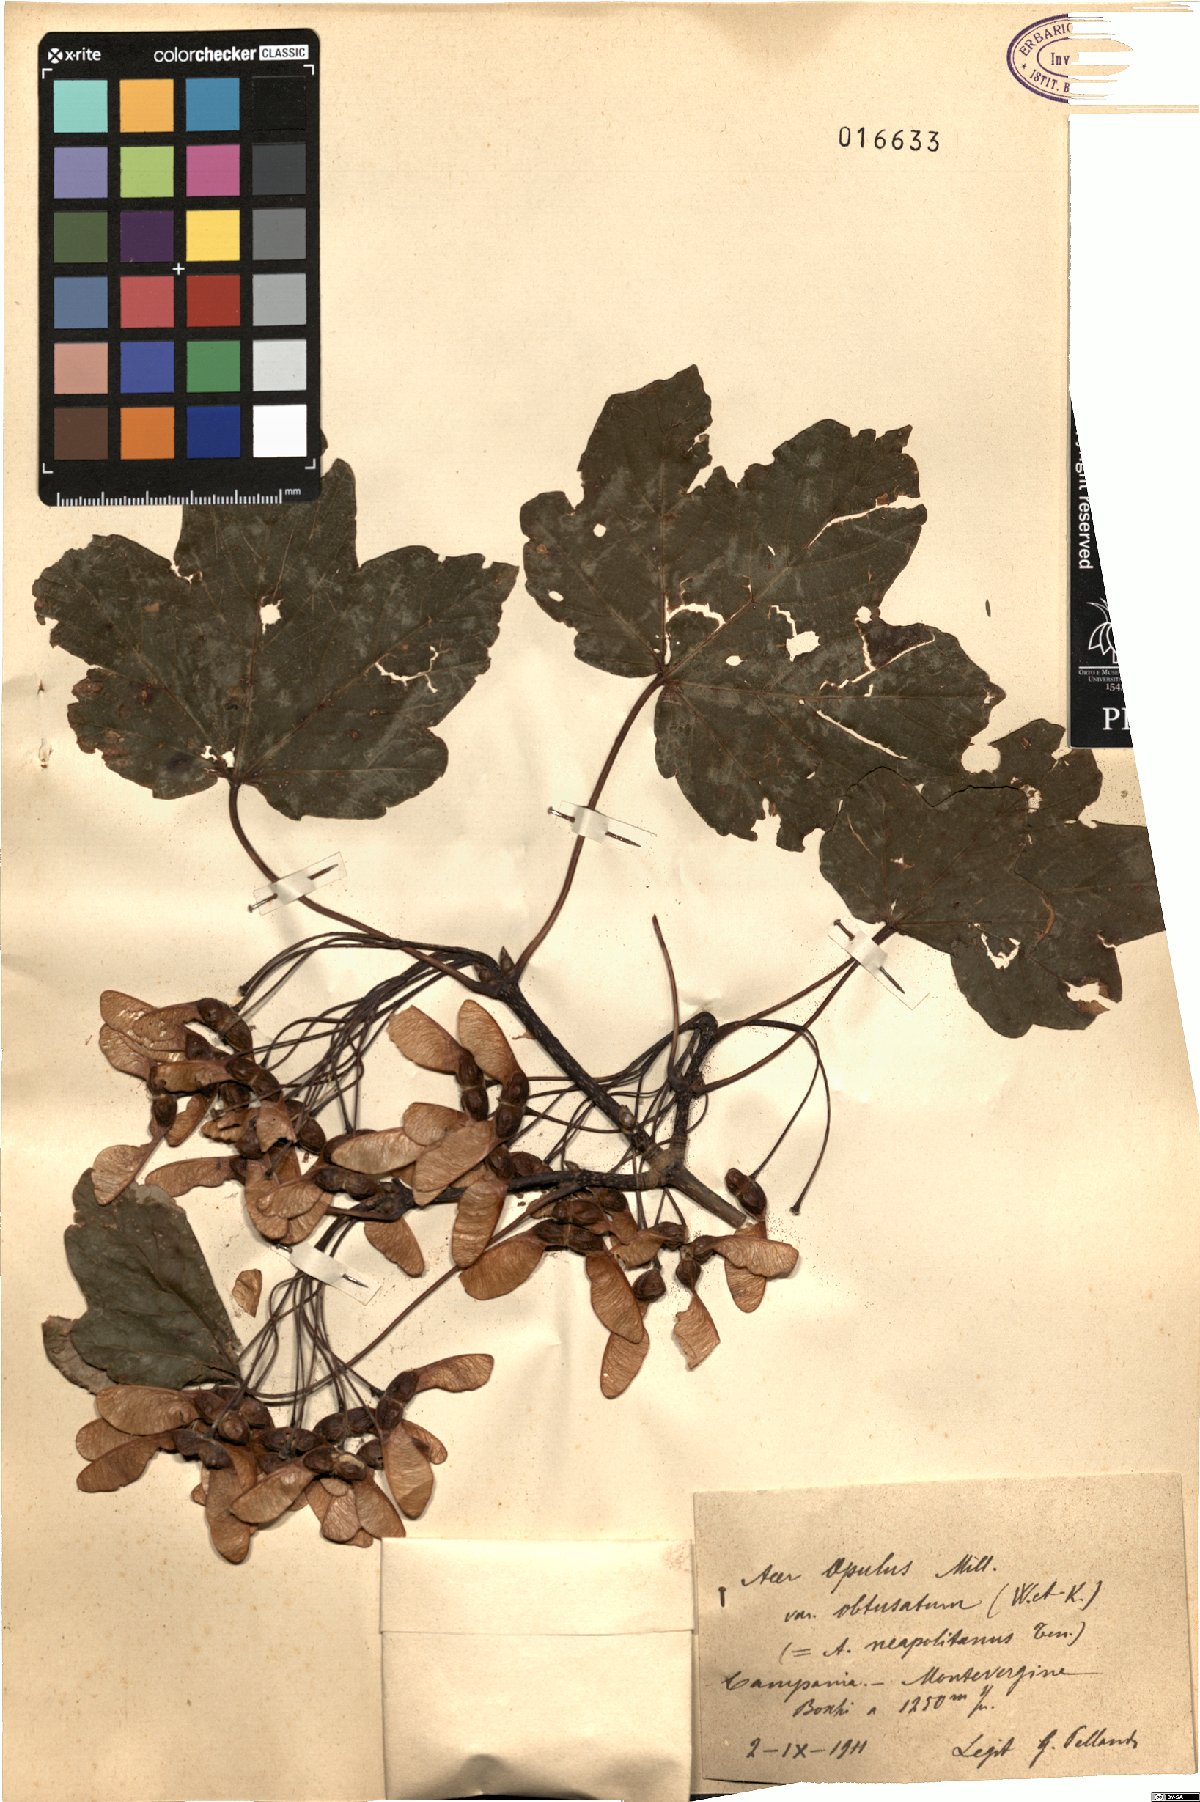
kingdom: Plantae
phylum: Tracheophyta
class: Magnoliopsida
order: Sapindales
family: Sapindaceae
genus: Acer
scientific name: Acer obtusatum
